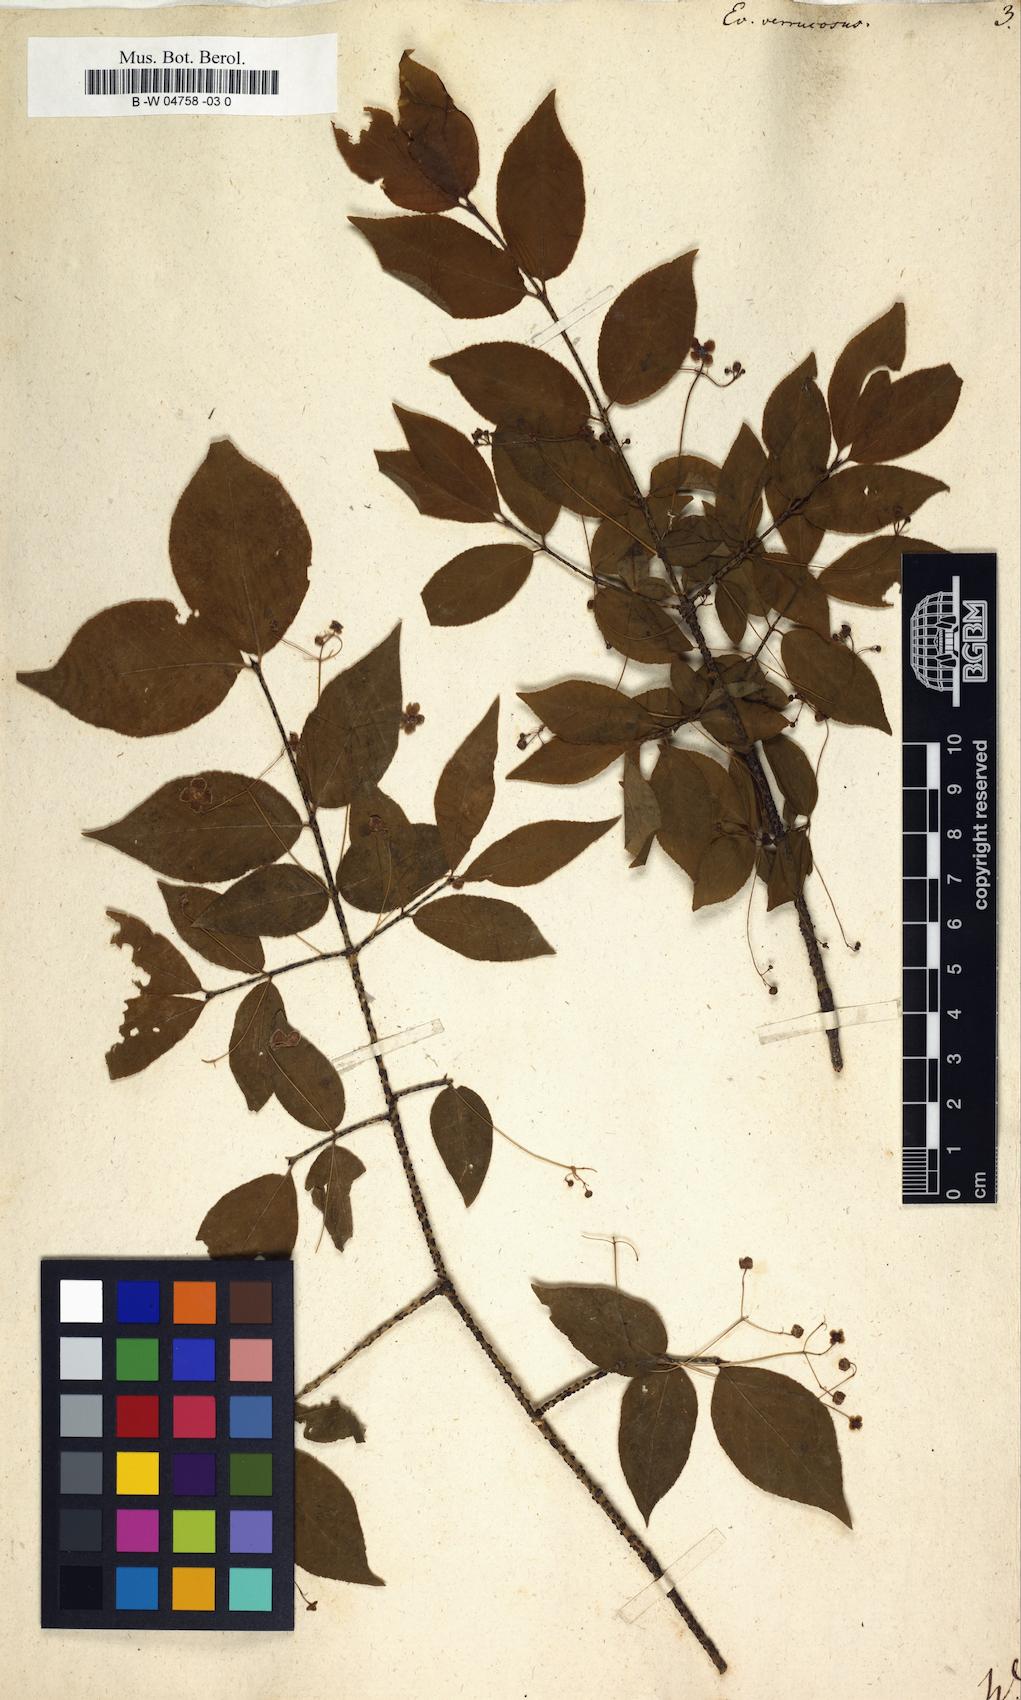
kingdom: Plantae
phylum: Tracheophyta
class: Magnoliopsida
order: Celastrales
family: Celastraceae
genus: Euonymus
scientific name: Euonymus verrucosus
